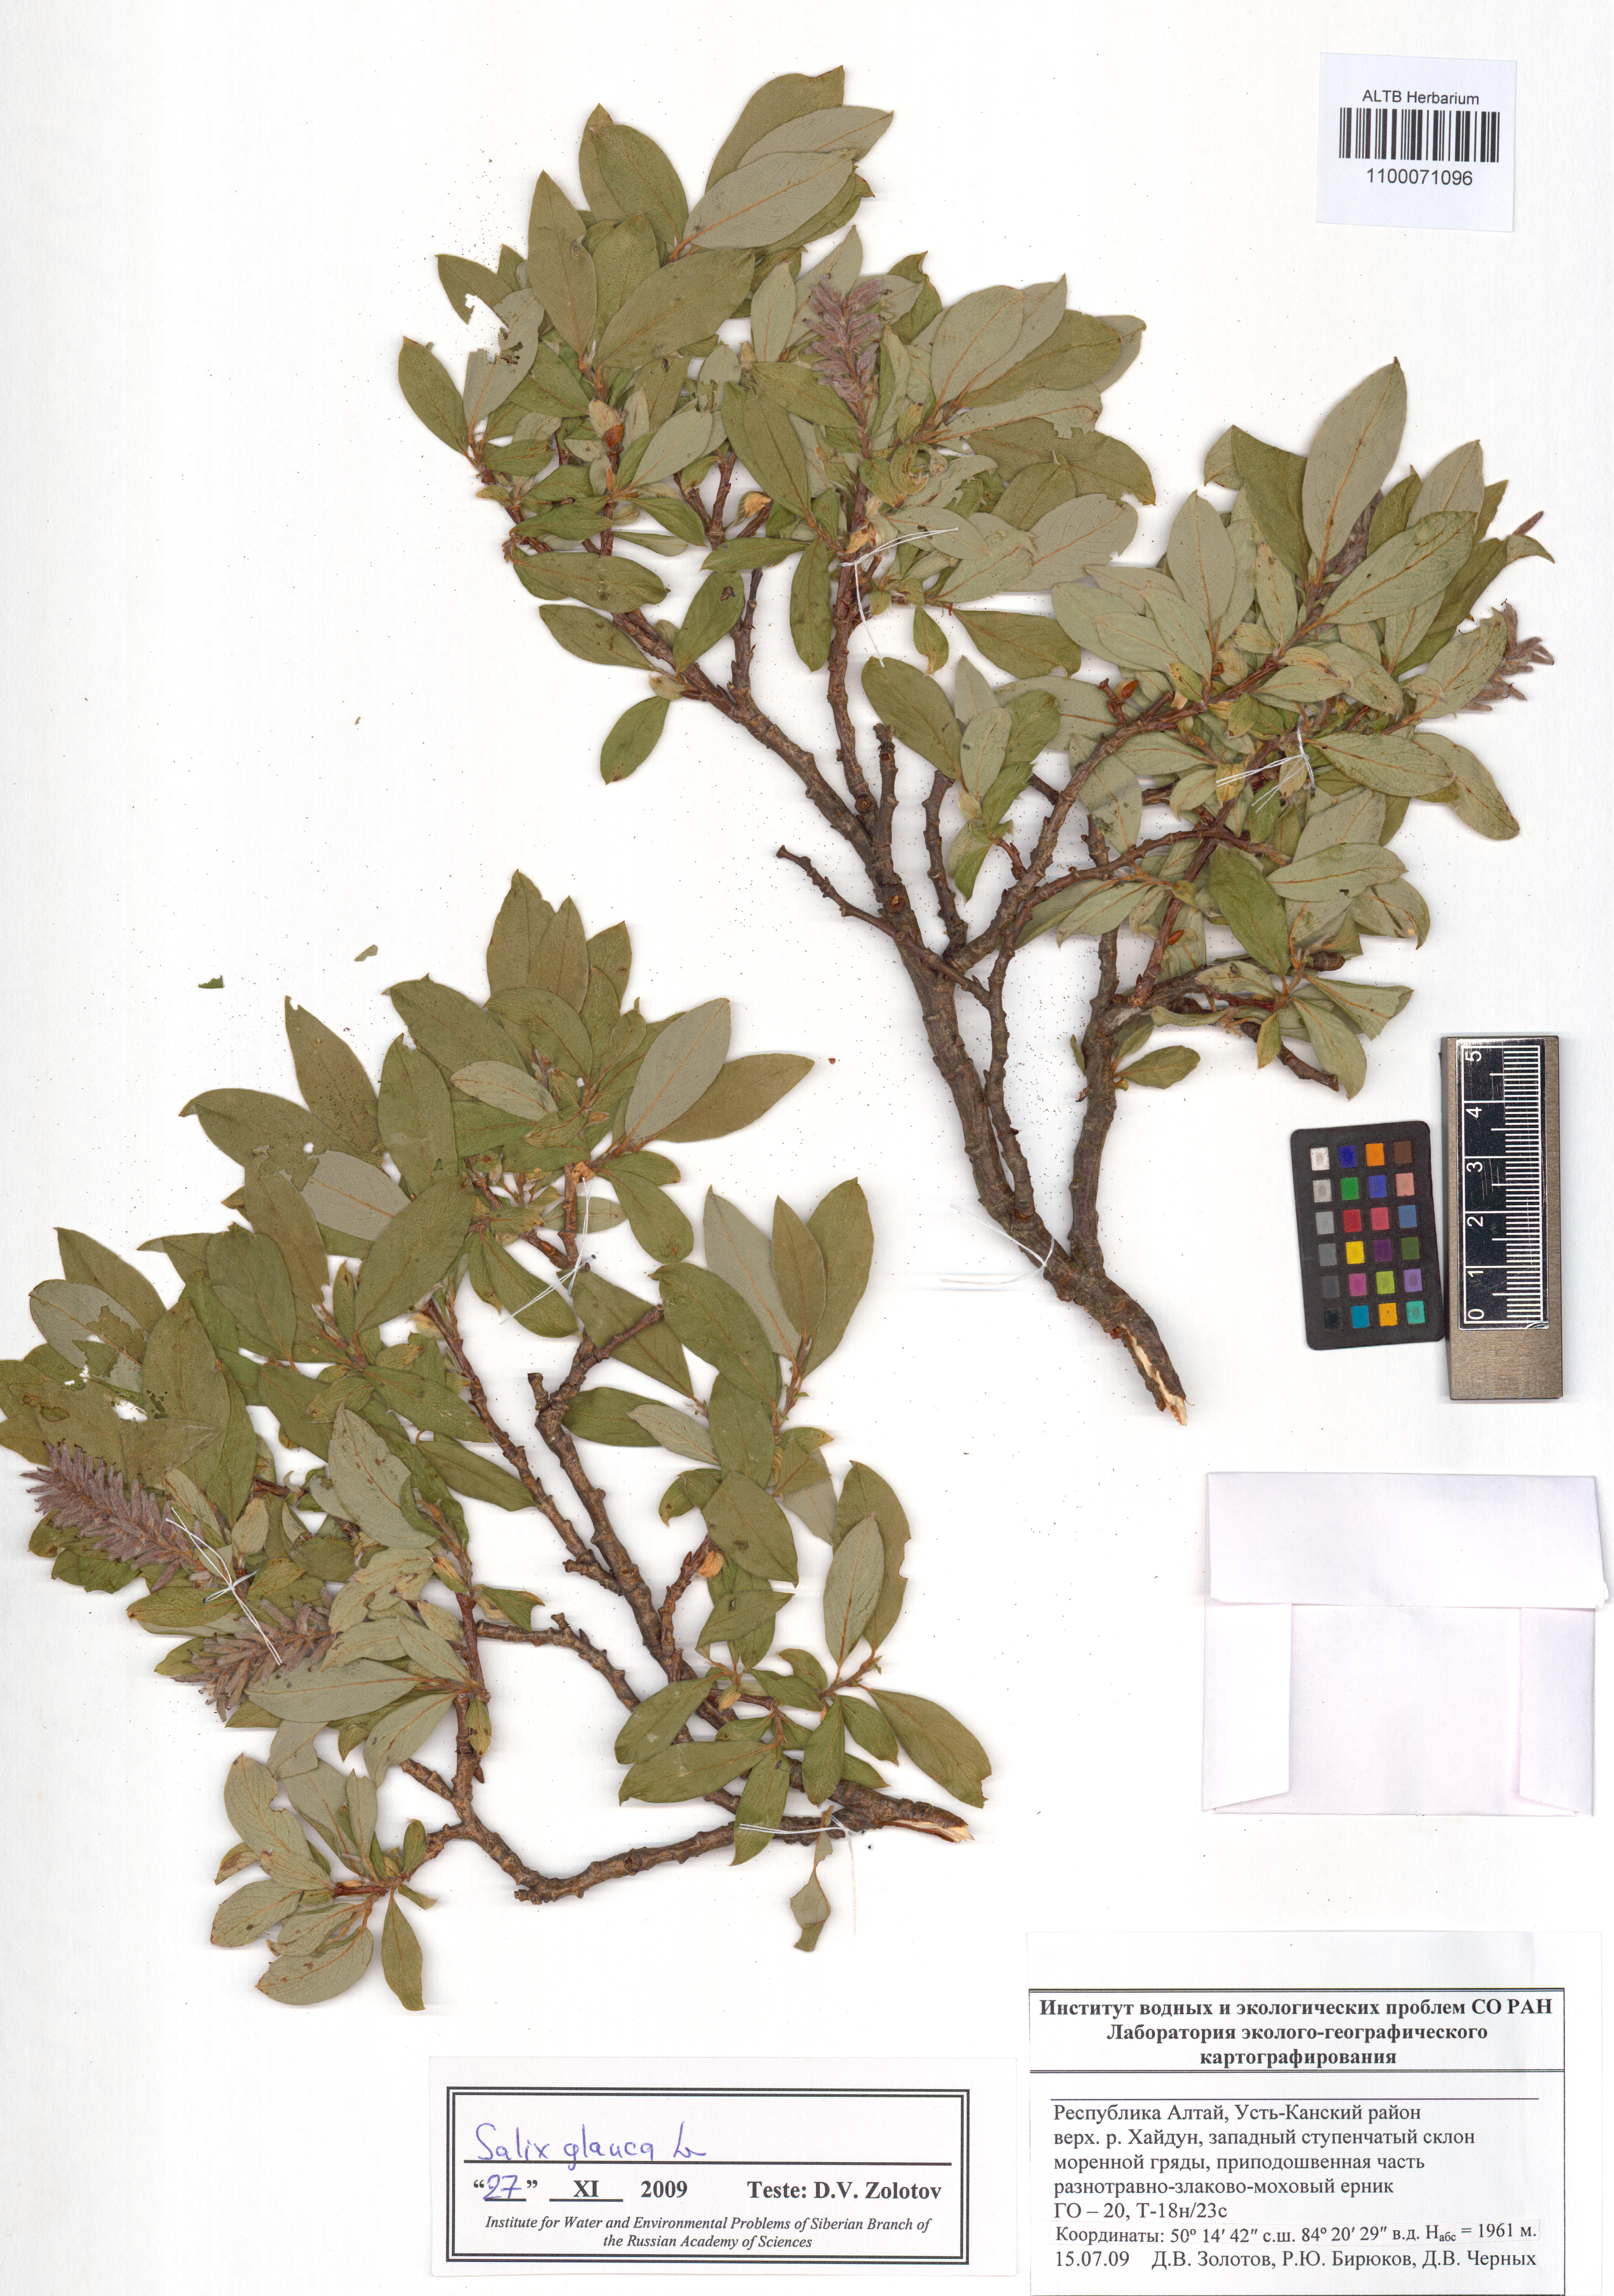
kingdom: Plantae
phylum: Tracheophyta
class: Magnoliopsida
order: Malpighiales
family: Salicaceae
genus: Salix
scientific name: Salix glauca
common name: Glaucous willow
